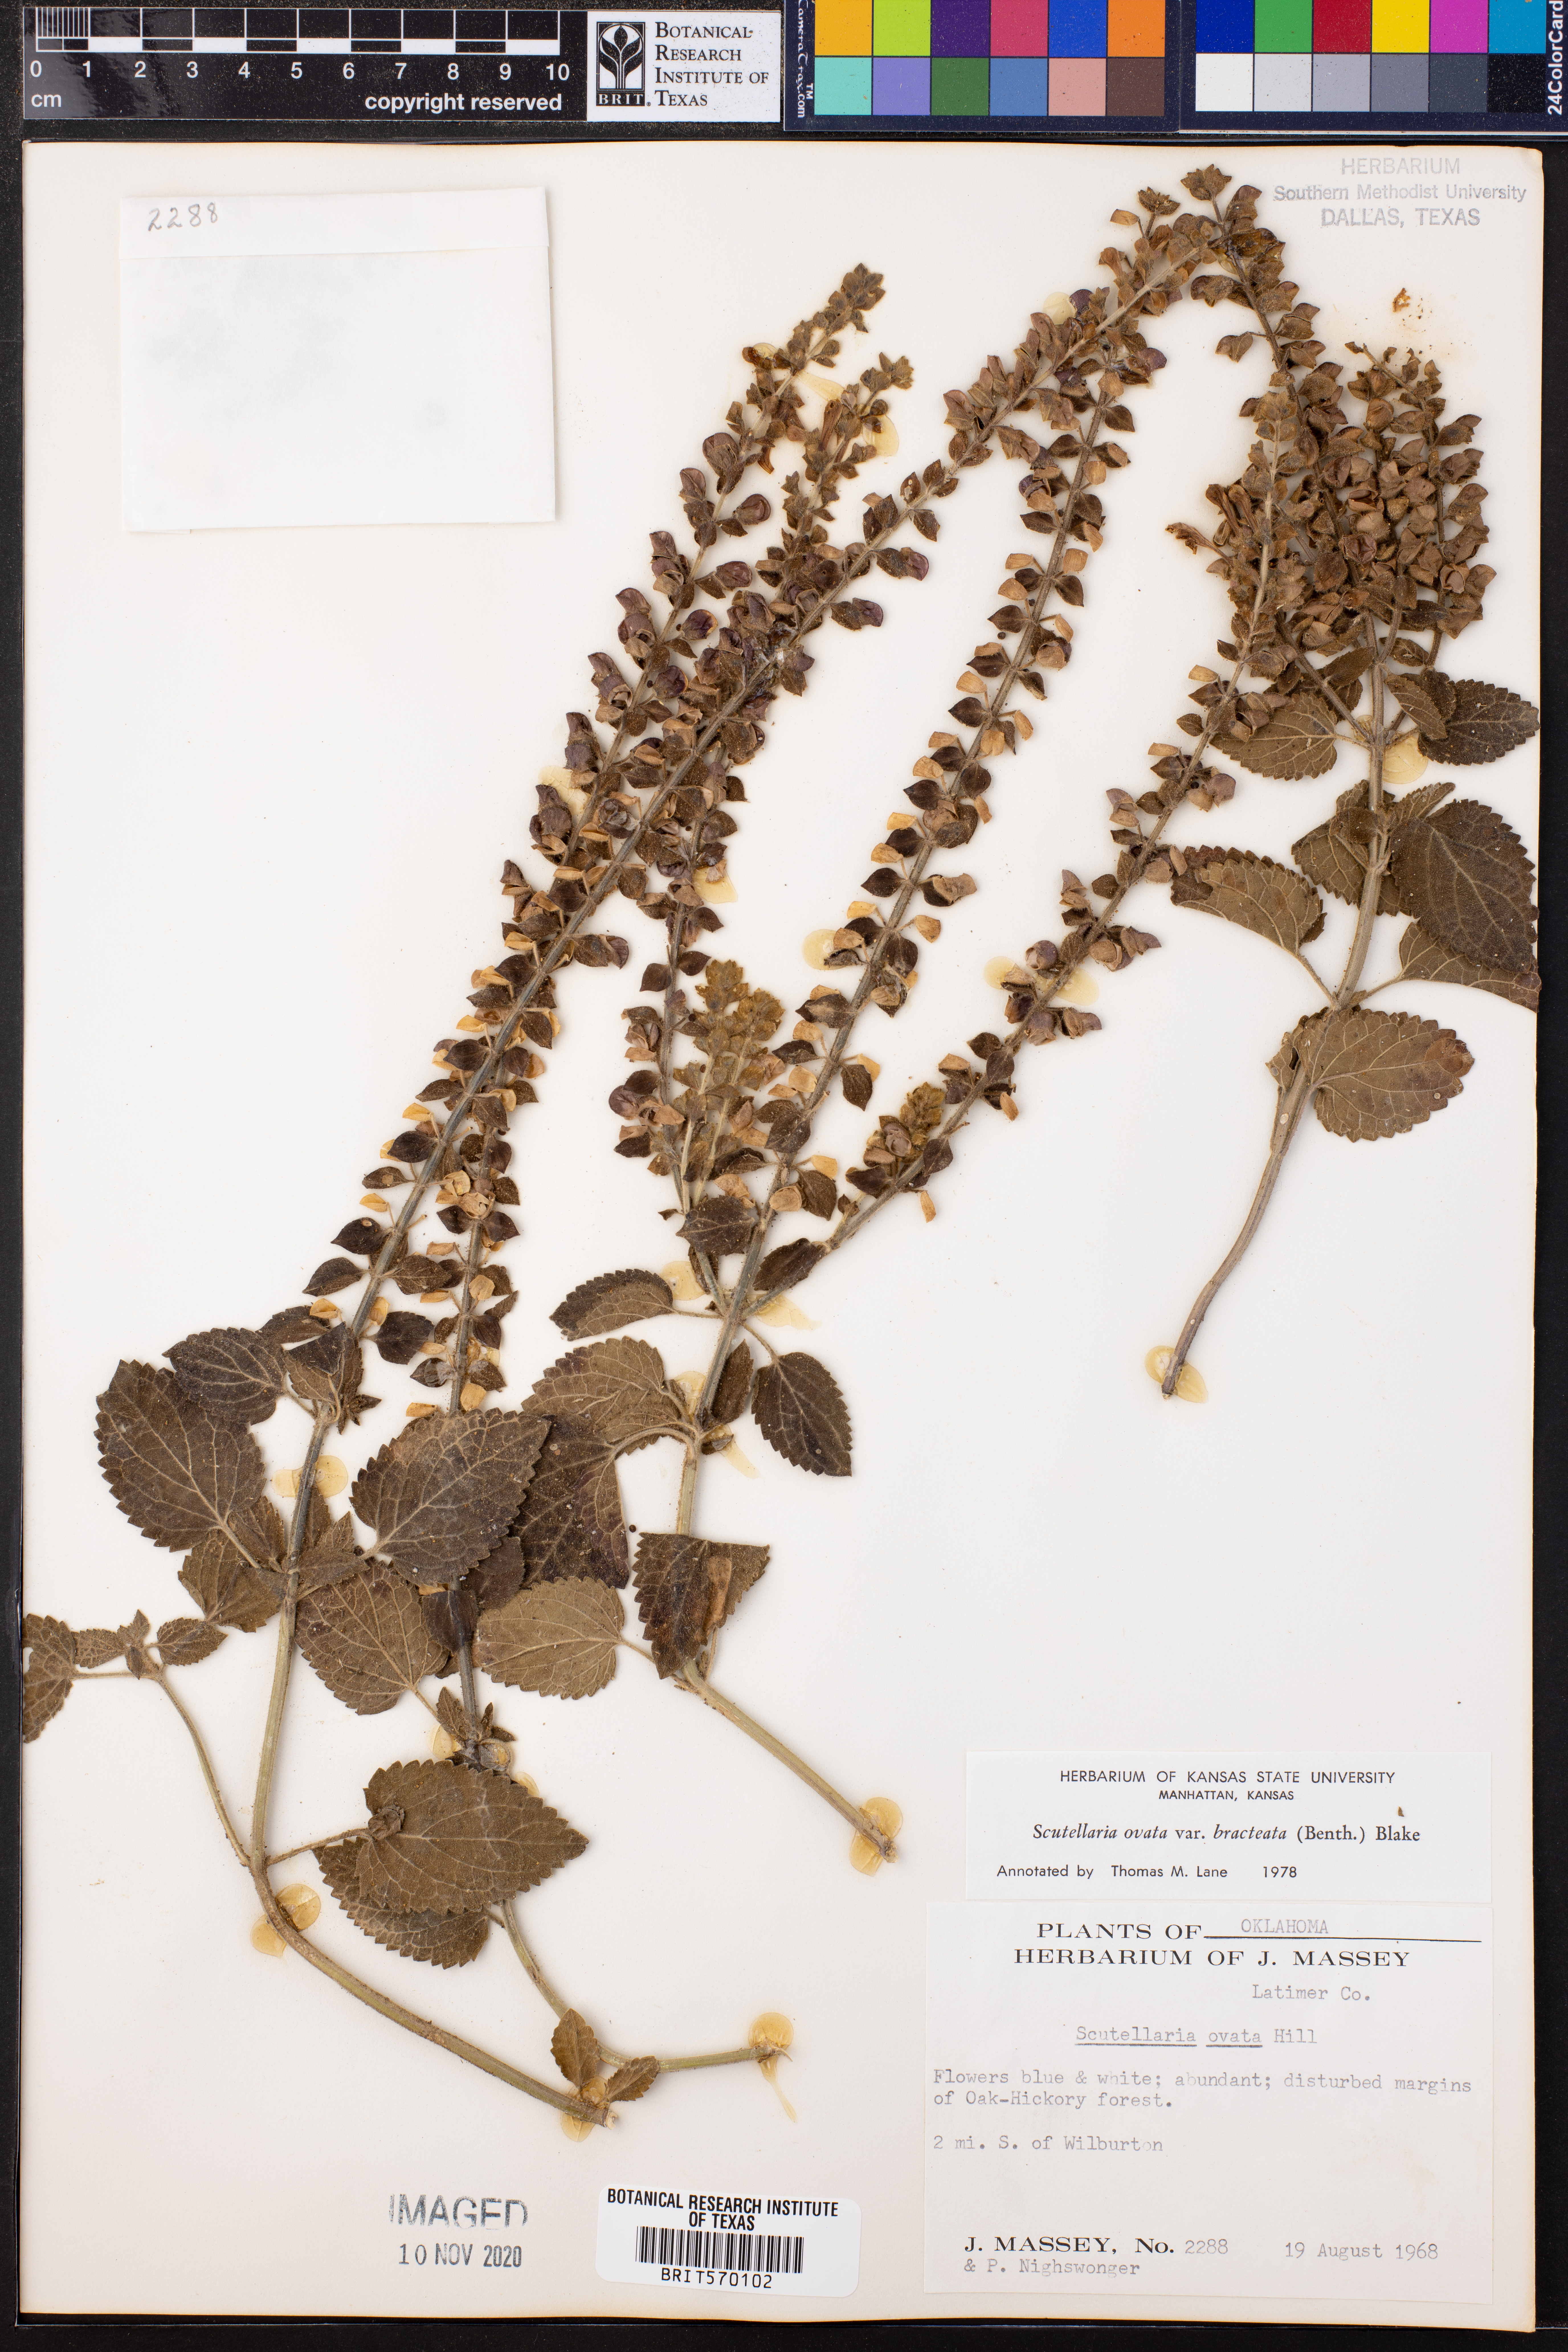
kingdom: Plantae
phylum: Tracheophyta
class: Magnoliopsida
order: Lamiales
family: Lamiaceae
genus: Scutellaria
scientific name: Scutellaria ovata
